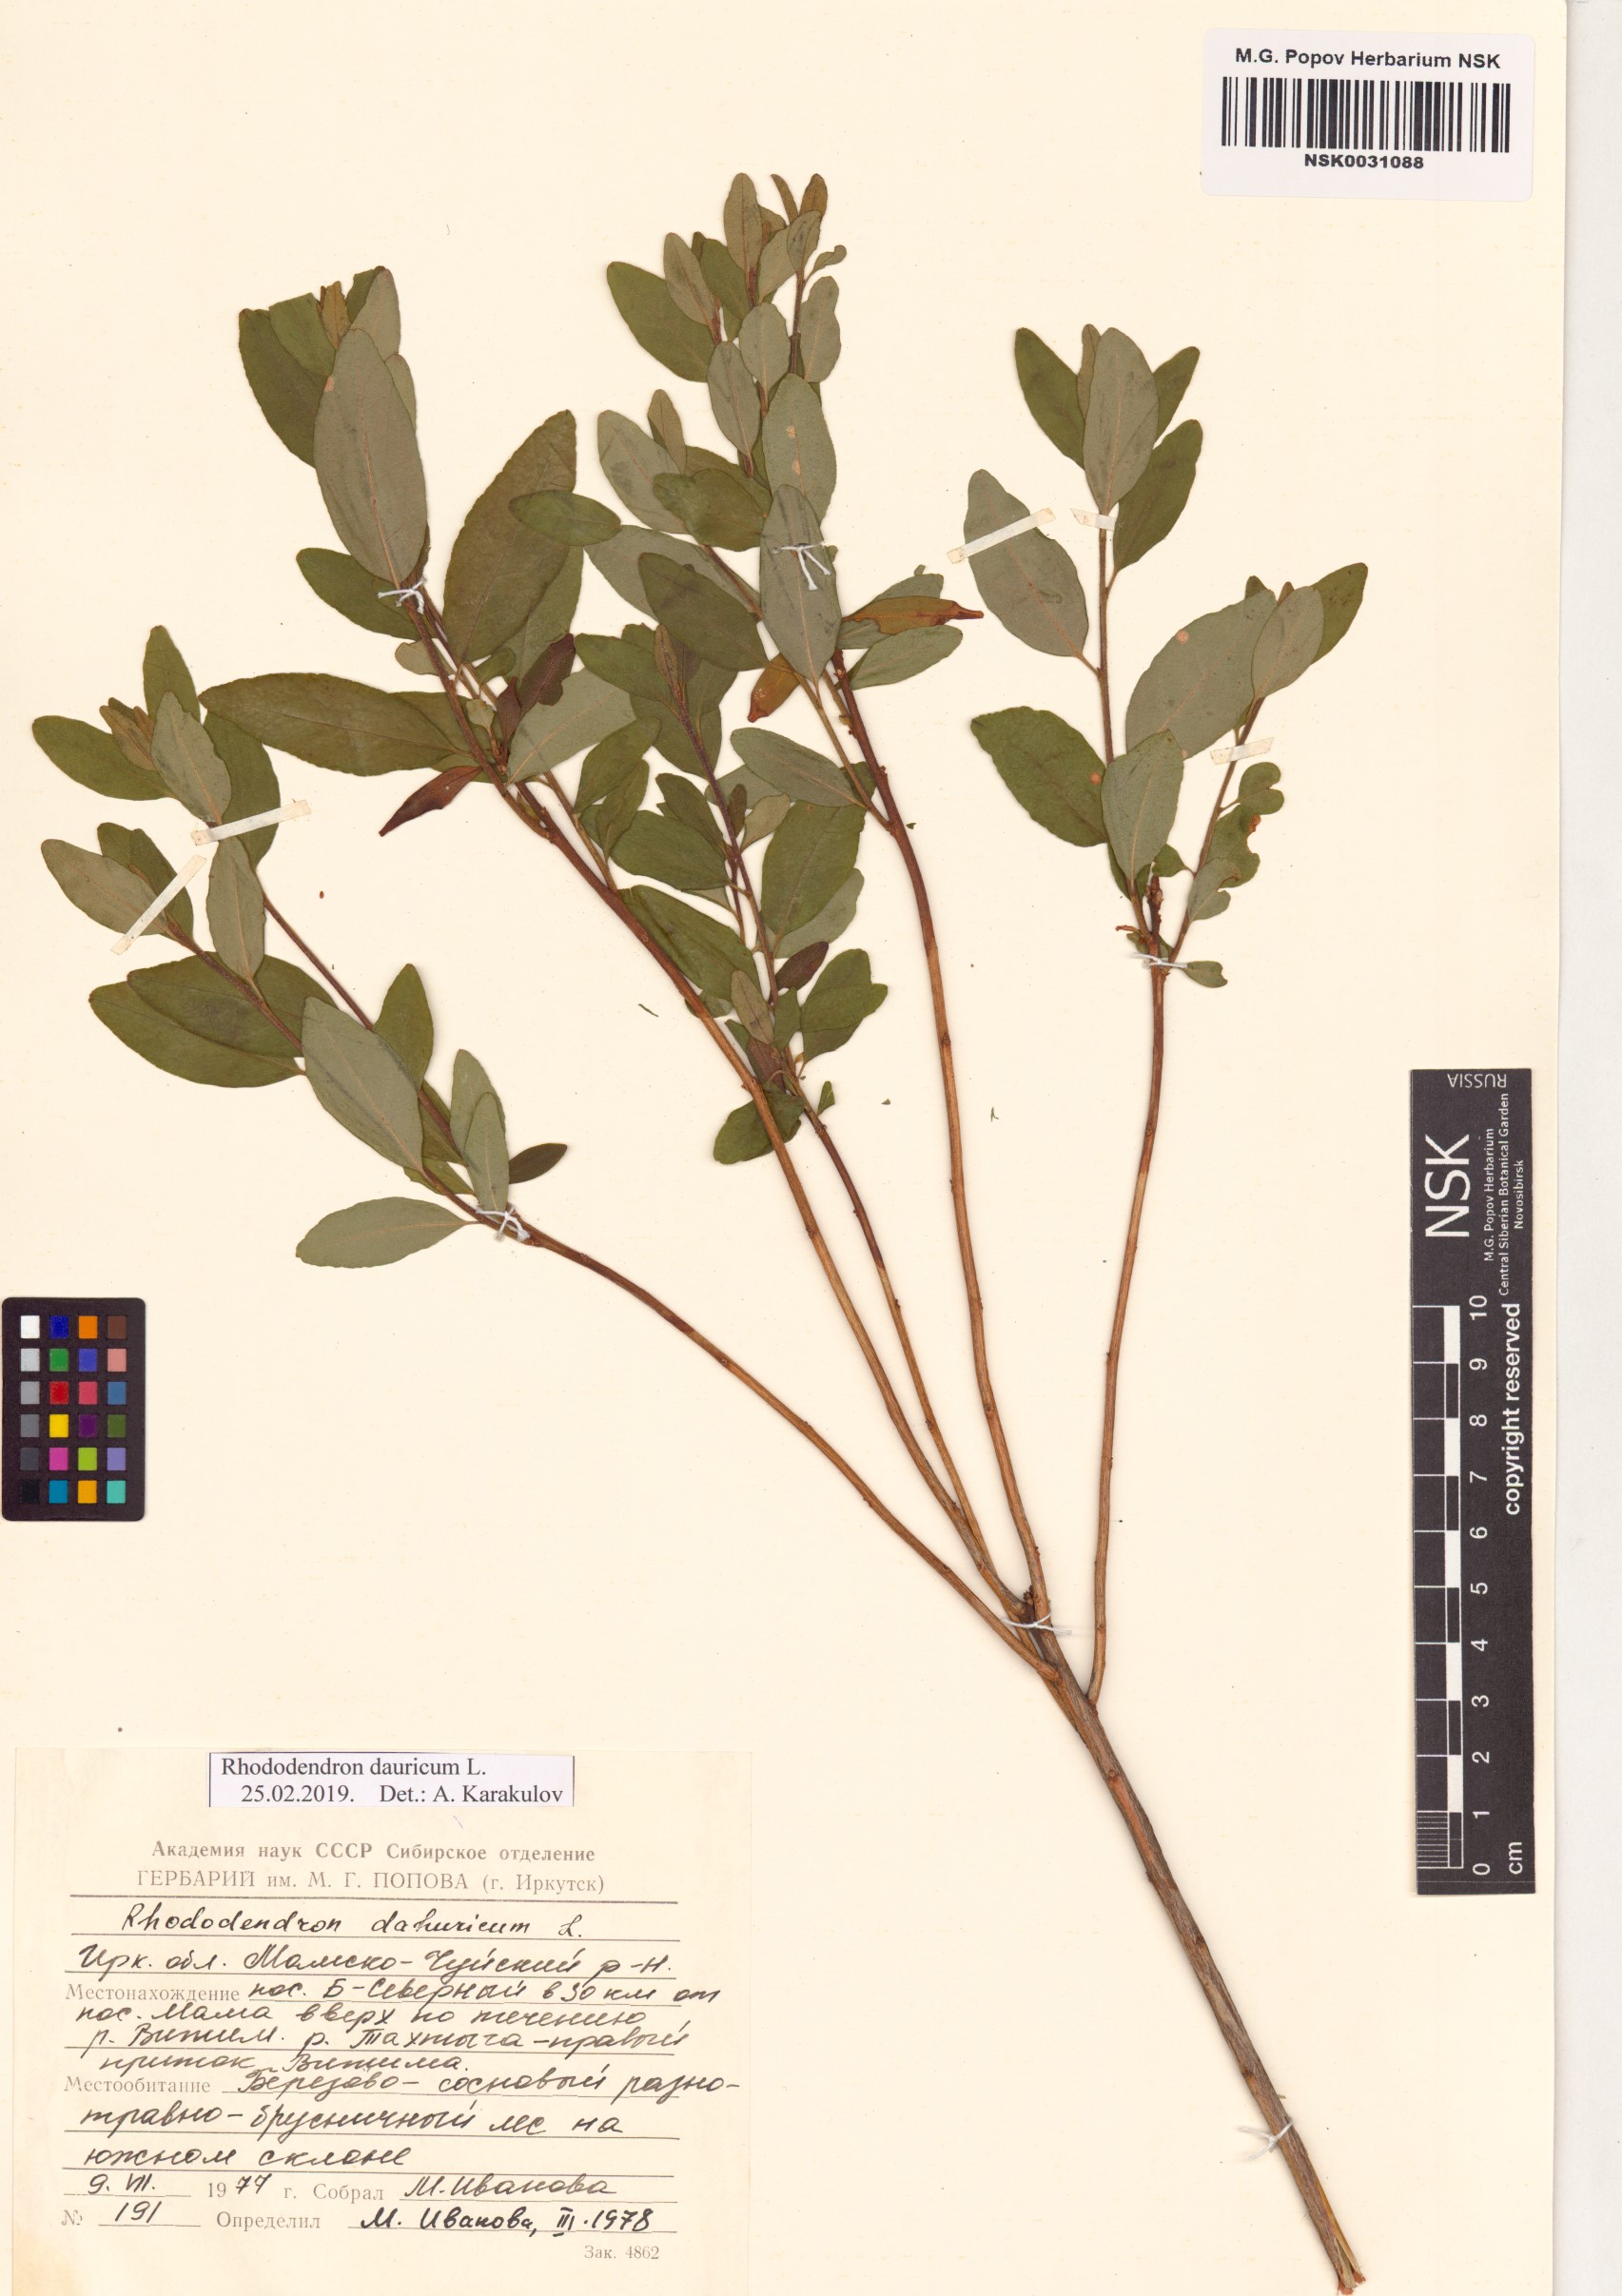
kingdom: Plantae
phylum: Tracheophyta
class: Magnoliopsida
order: Ericales
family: Ericaceae
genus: Rhododendron
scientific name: Rhododendron dauricum
